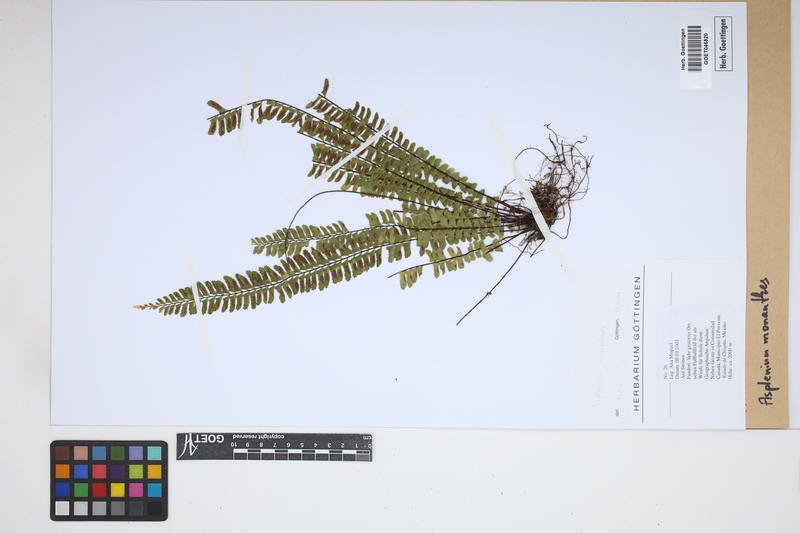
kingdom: Plantae
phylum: Tracheophyta
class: Polypodiopsida
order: Polypodiales
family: Aspleniaceae
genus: Asplenium
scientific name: Asplenium monanthes
